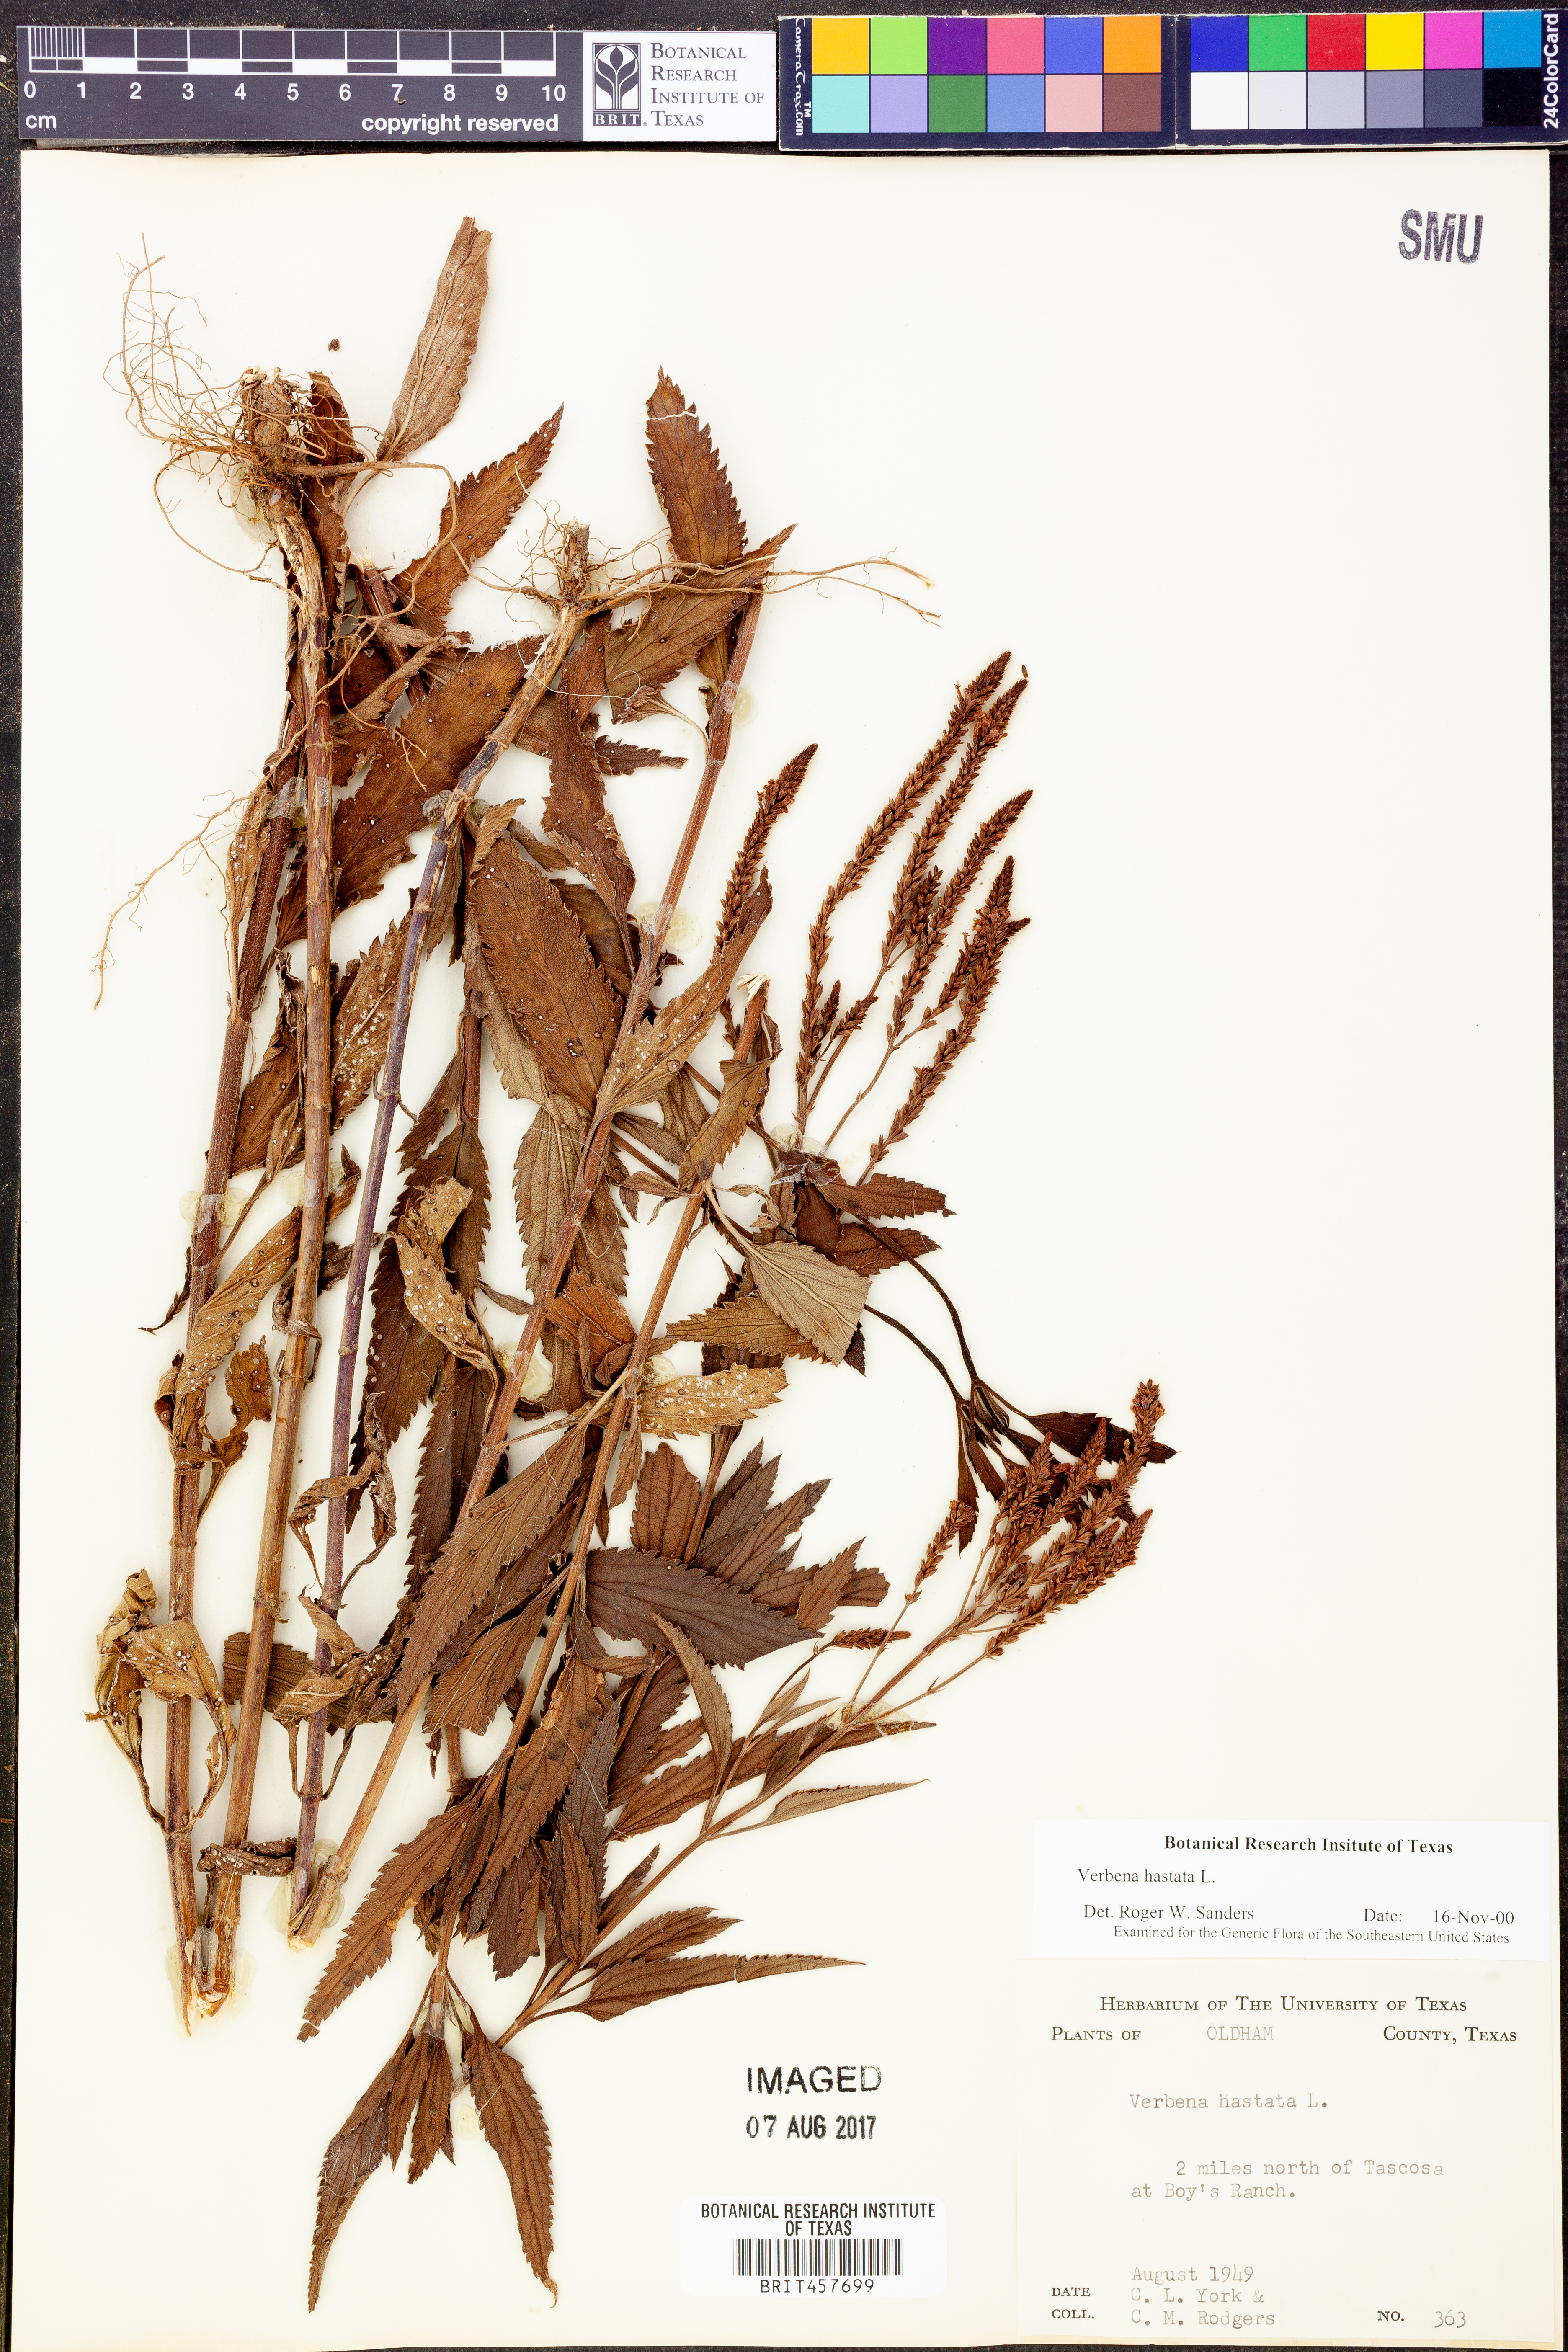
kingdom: Plantae
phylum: Tracheophyta
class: Magnoliopsida
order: Lamiales
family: Verbenaceae
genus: Verbena
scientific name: Verbena hastata
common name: American blue vervain
